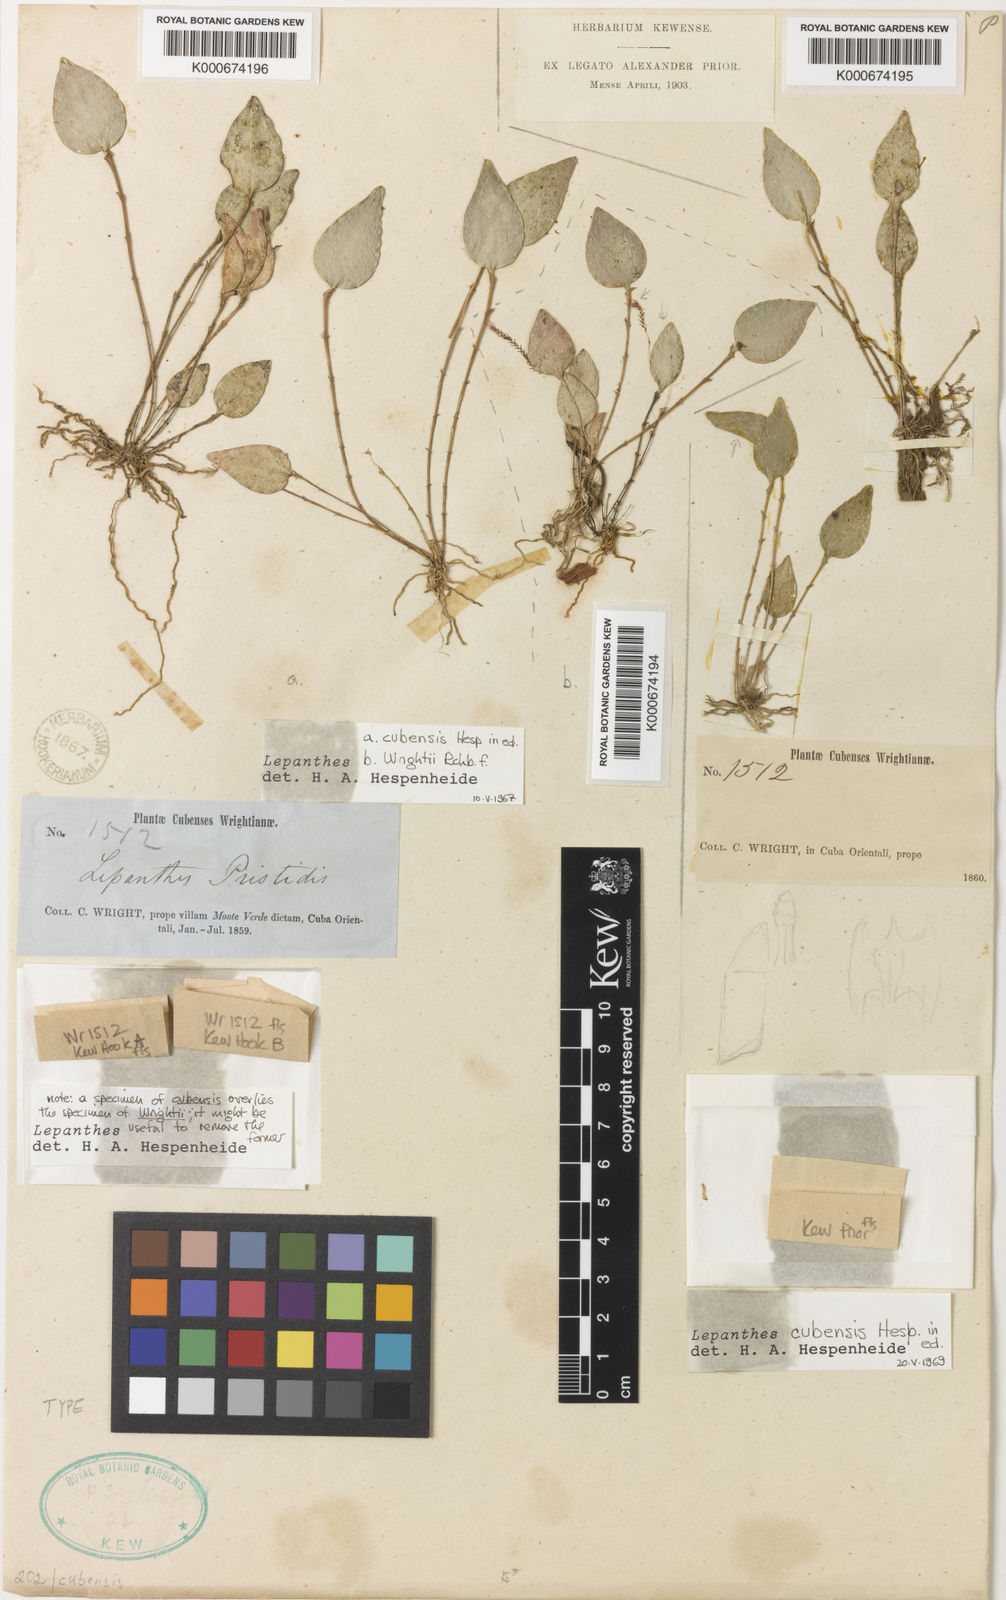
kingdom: Plantae
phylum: Tracheophyta
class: Liliopsida
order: Asparagales
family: Orchidaceae
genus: Lepanthes
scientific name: Lepanthes cubensis
